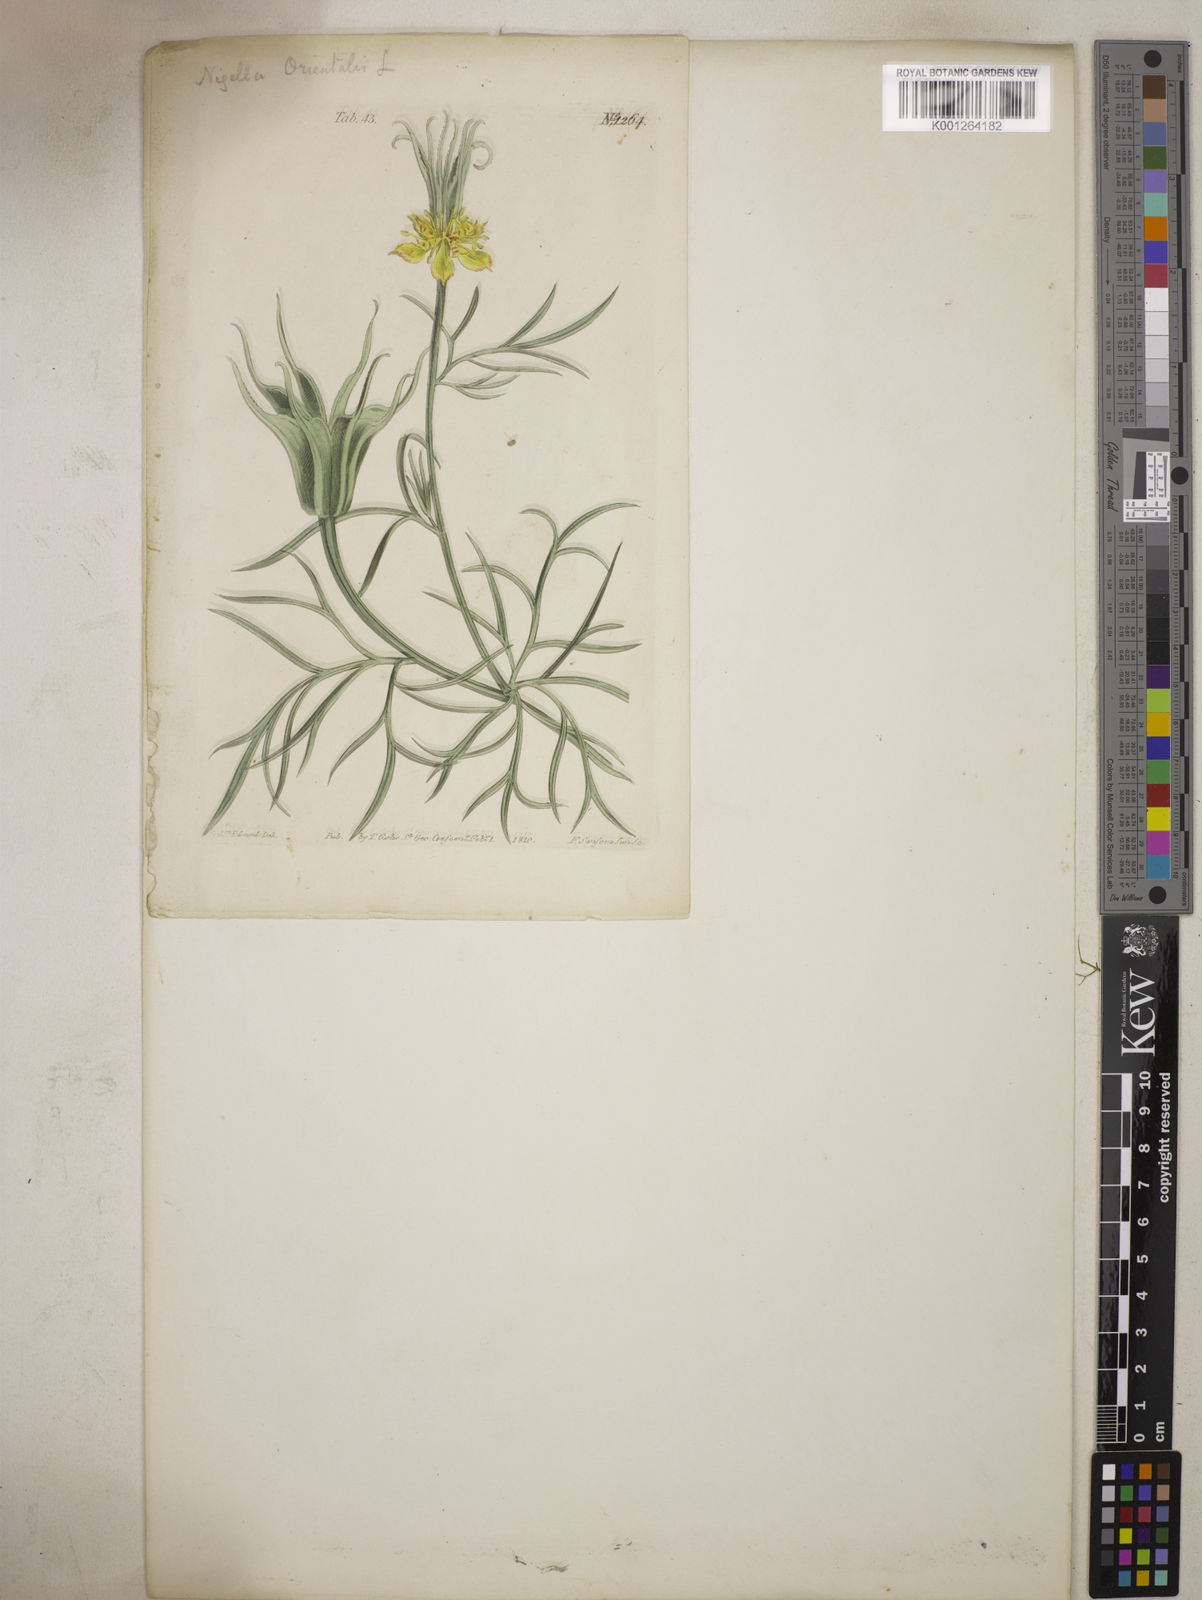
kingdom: Plantae
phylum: Tracheophyta
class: Magnoliopsida
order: Ranunculales
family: Ranunculaceae
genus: Nigella
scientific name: Nigella orientalis
